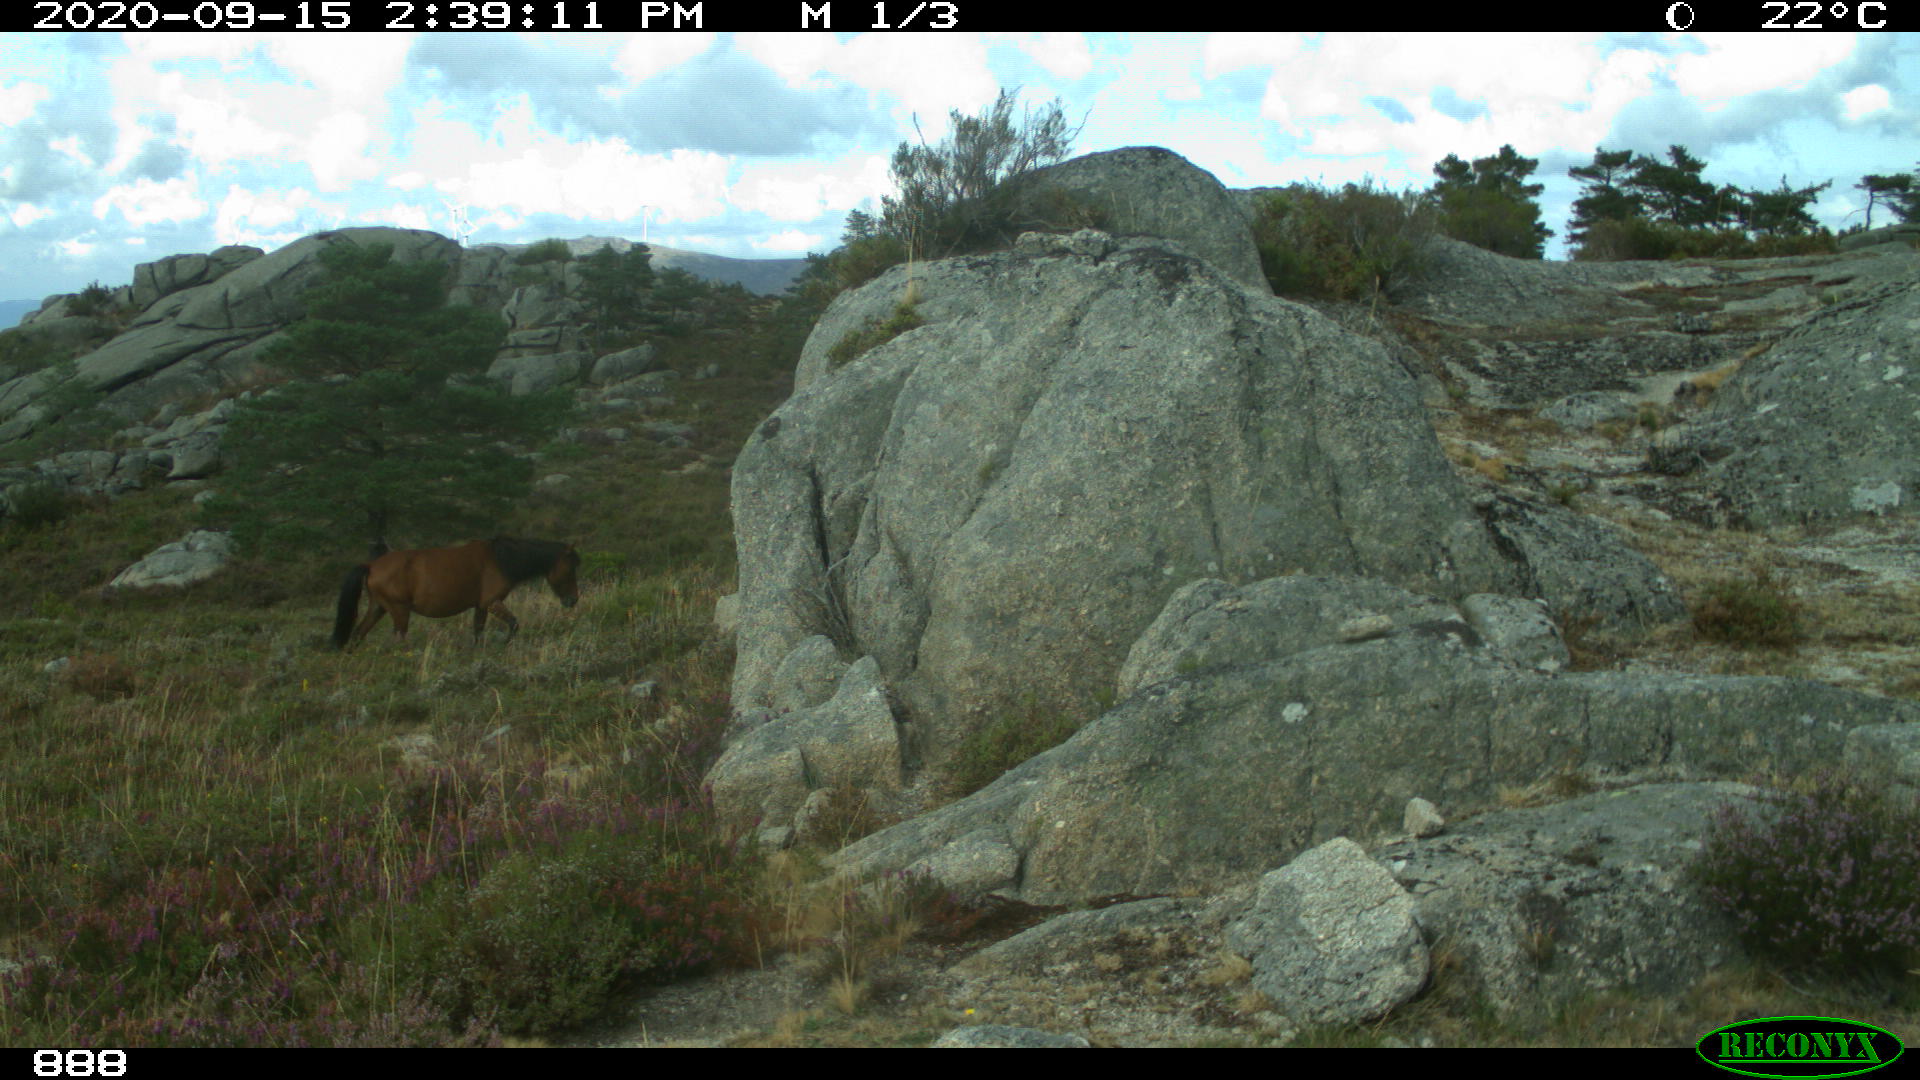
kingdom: Animalia
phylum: Chordata
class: Mammalia
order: Perissodactyla
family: Equidae
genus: Equus
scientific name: Equus caballus
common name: Horse
